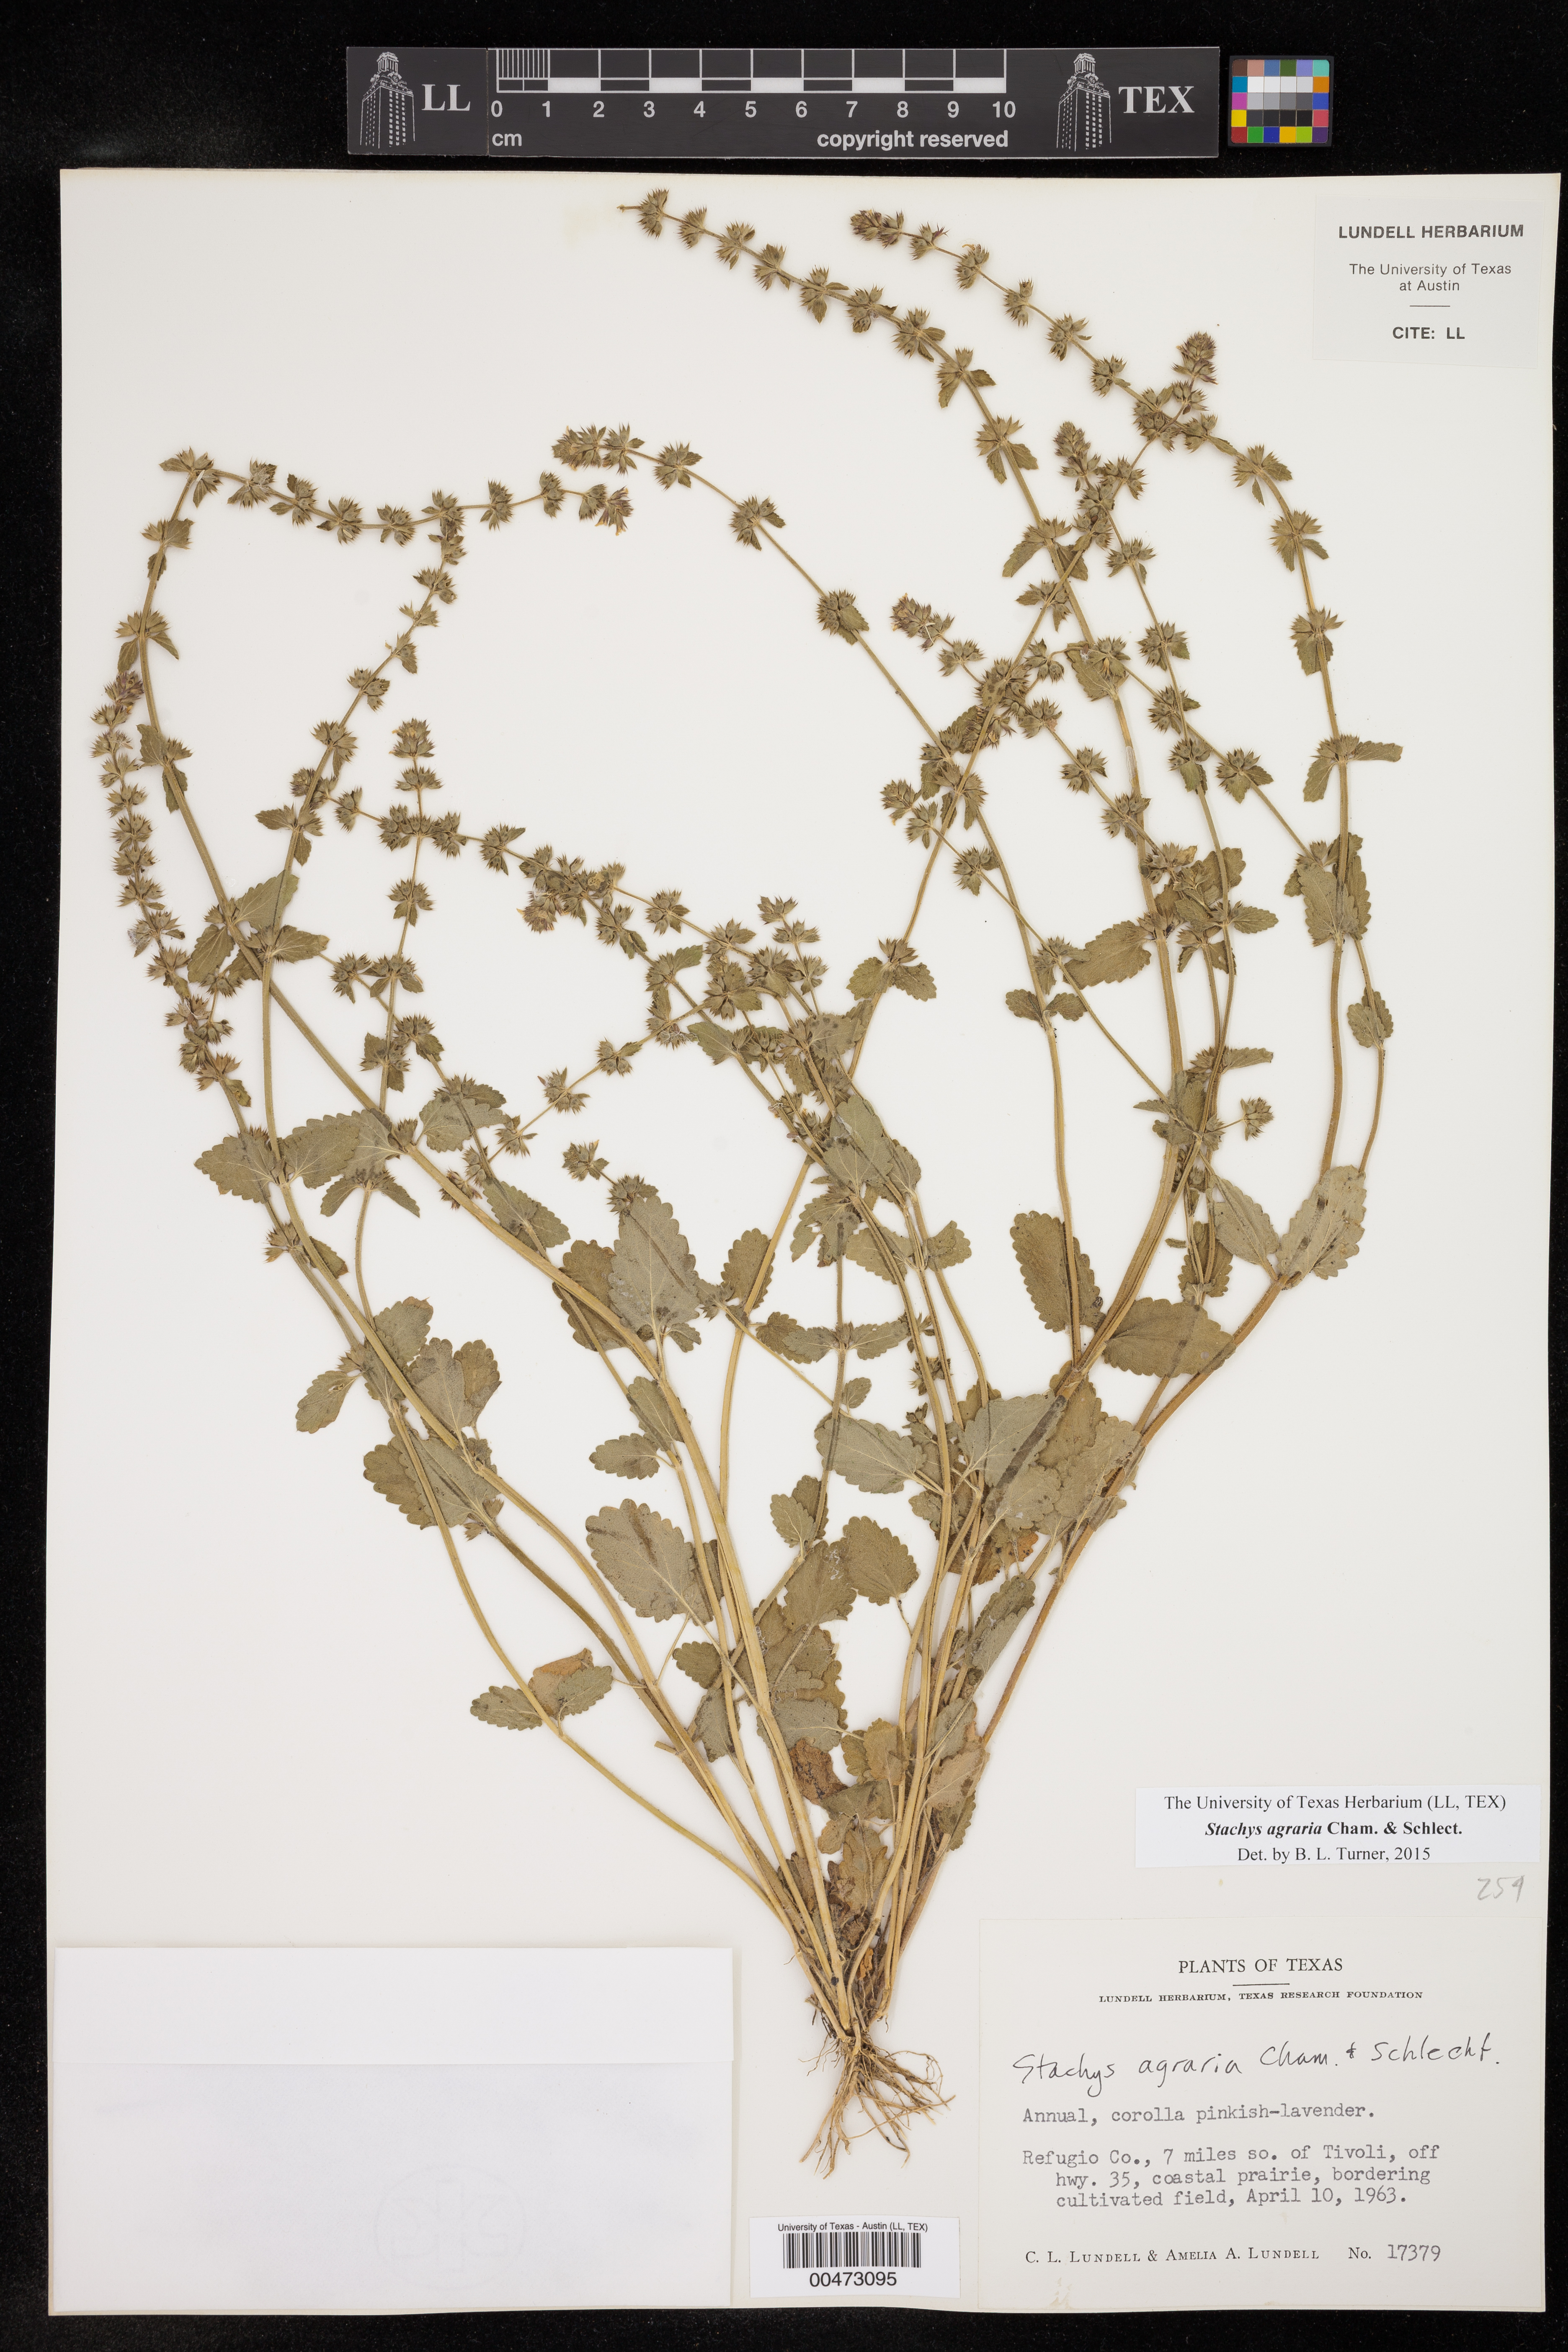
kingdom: Plantae
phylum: Tracheophyta
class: Magnoliopsida
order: Lamiales
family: Lamiaceae
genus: Stachys
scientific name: Stachys agraria
